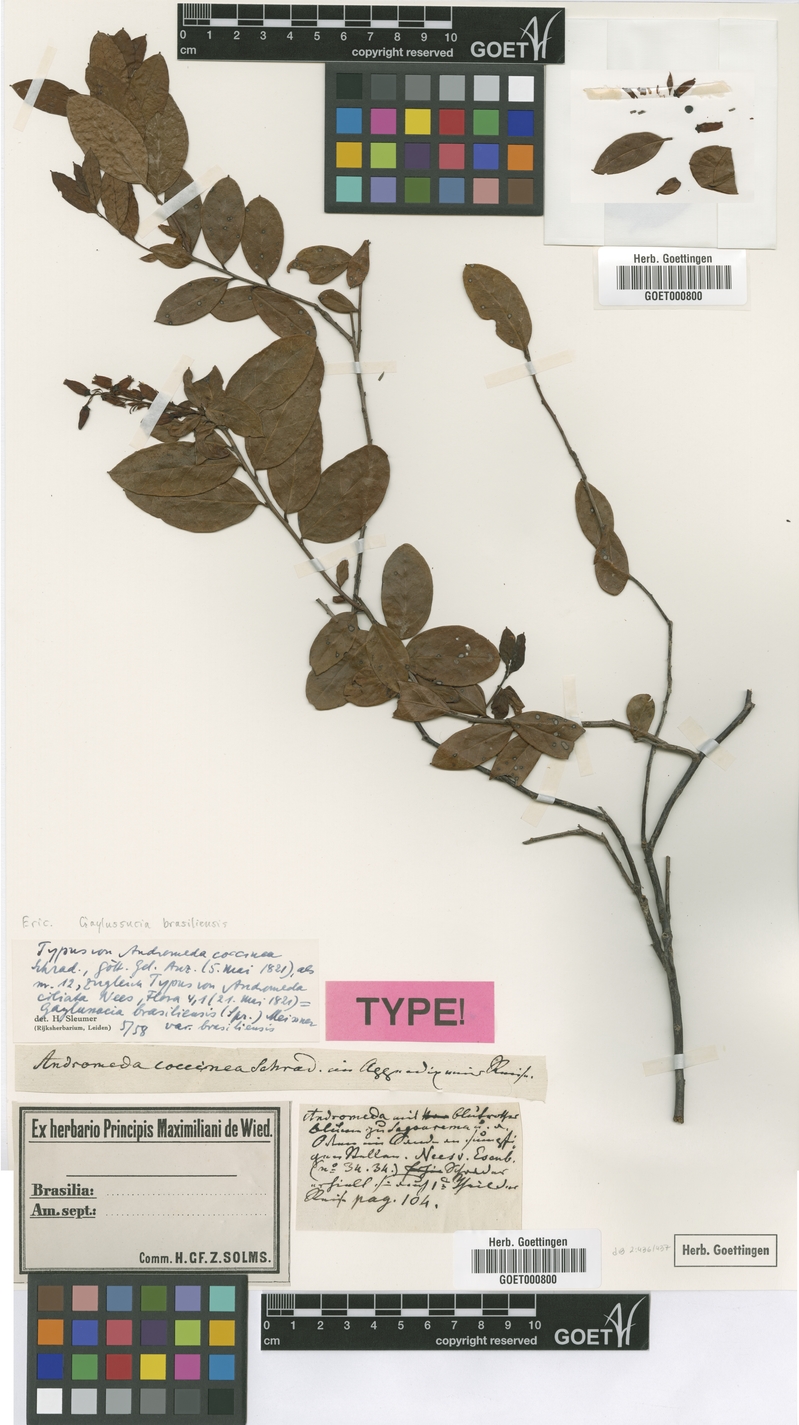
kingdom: Plantae
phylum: Tracheophyta
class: Magnoliopsida
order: Ericales
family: Ericaceae
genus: Gaylussacia
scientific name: Gaylussacia brasiliensis
